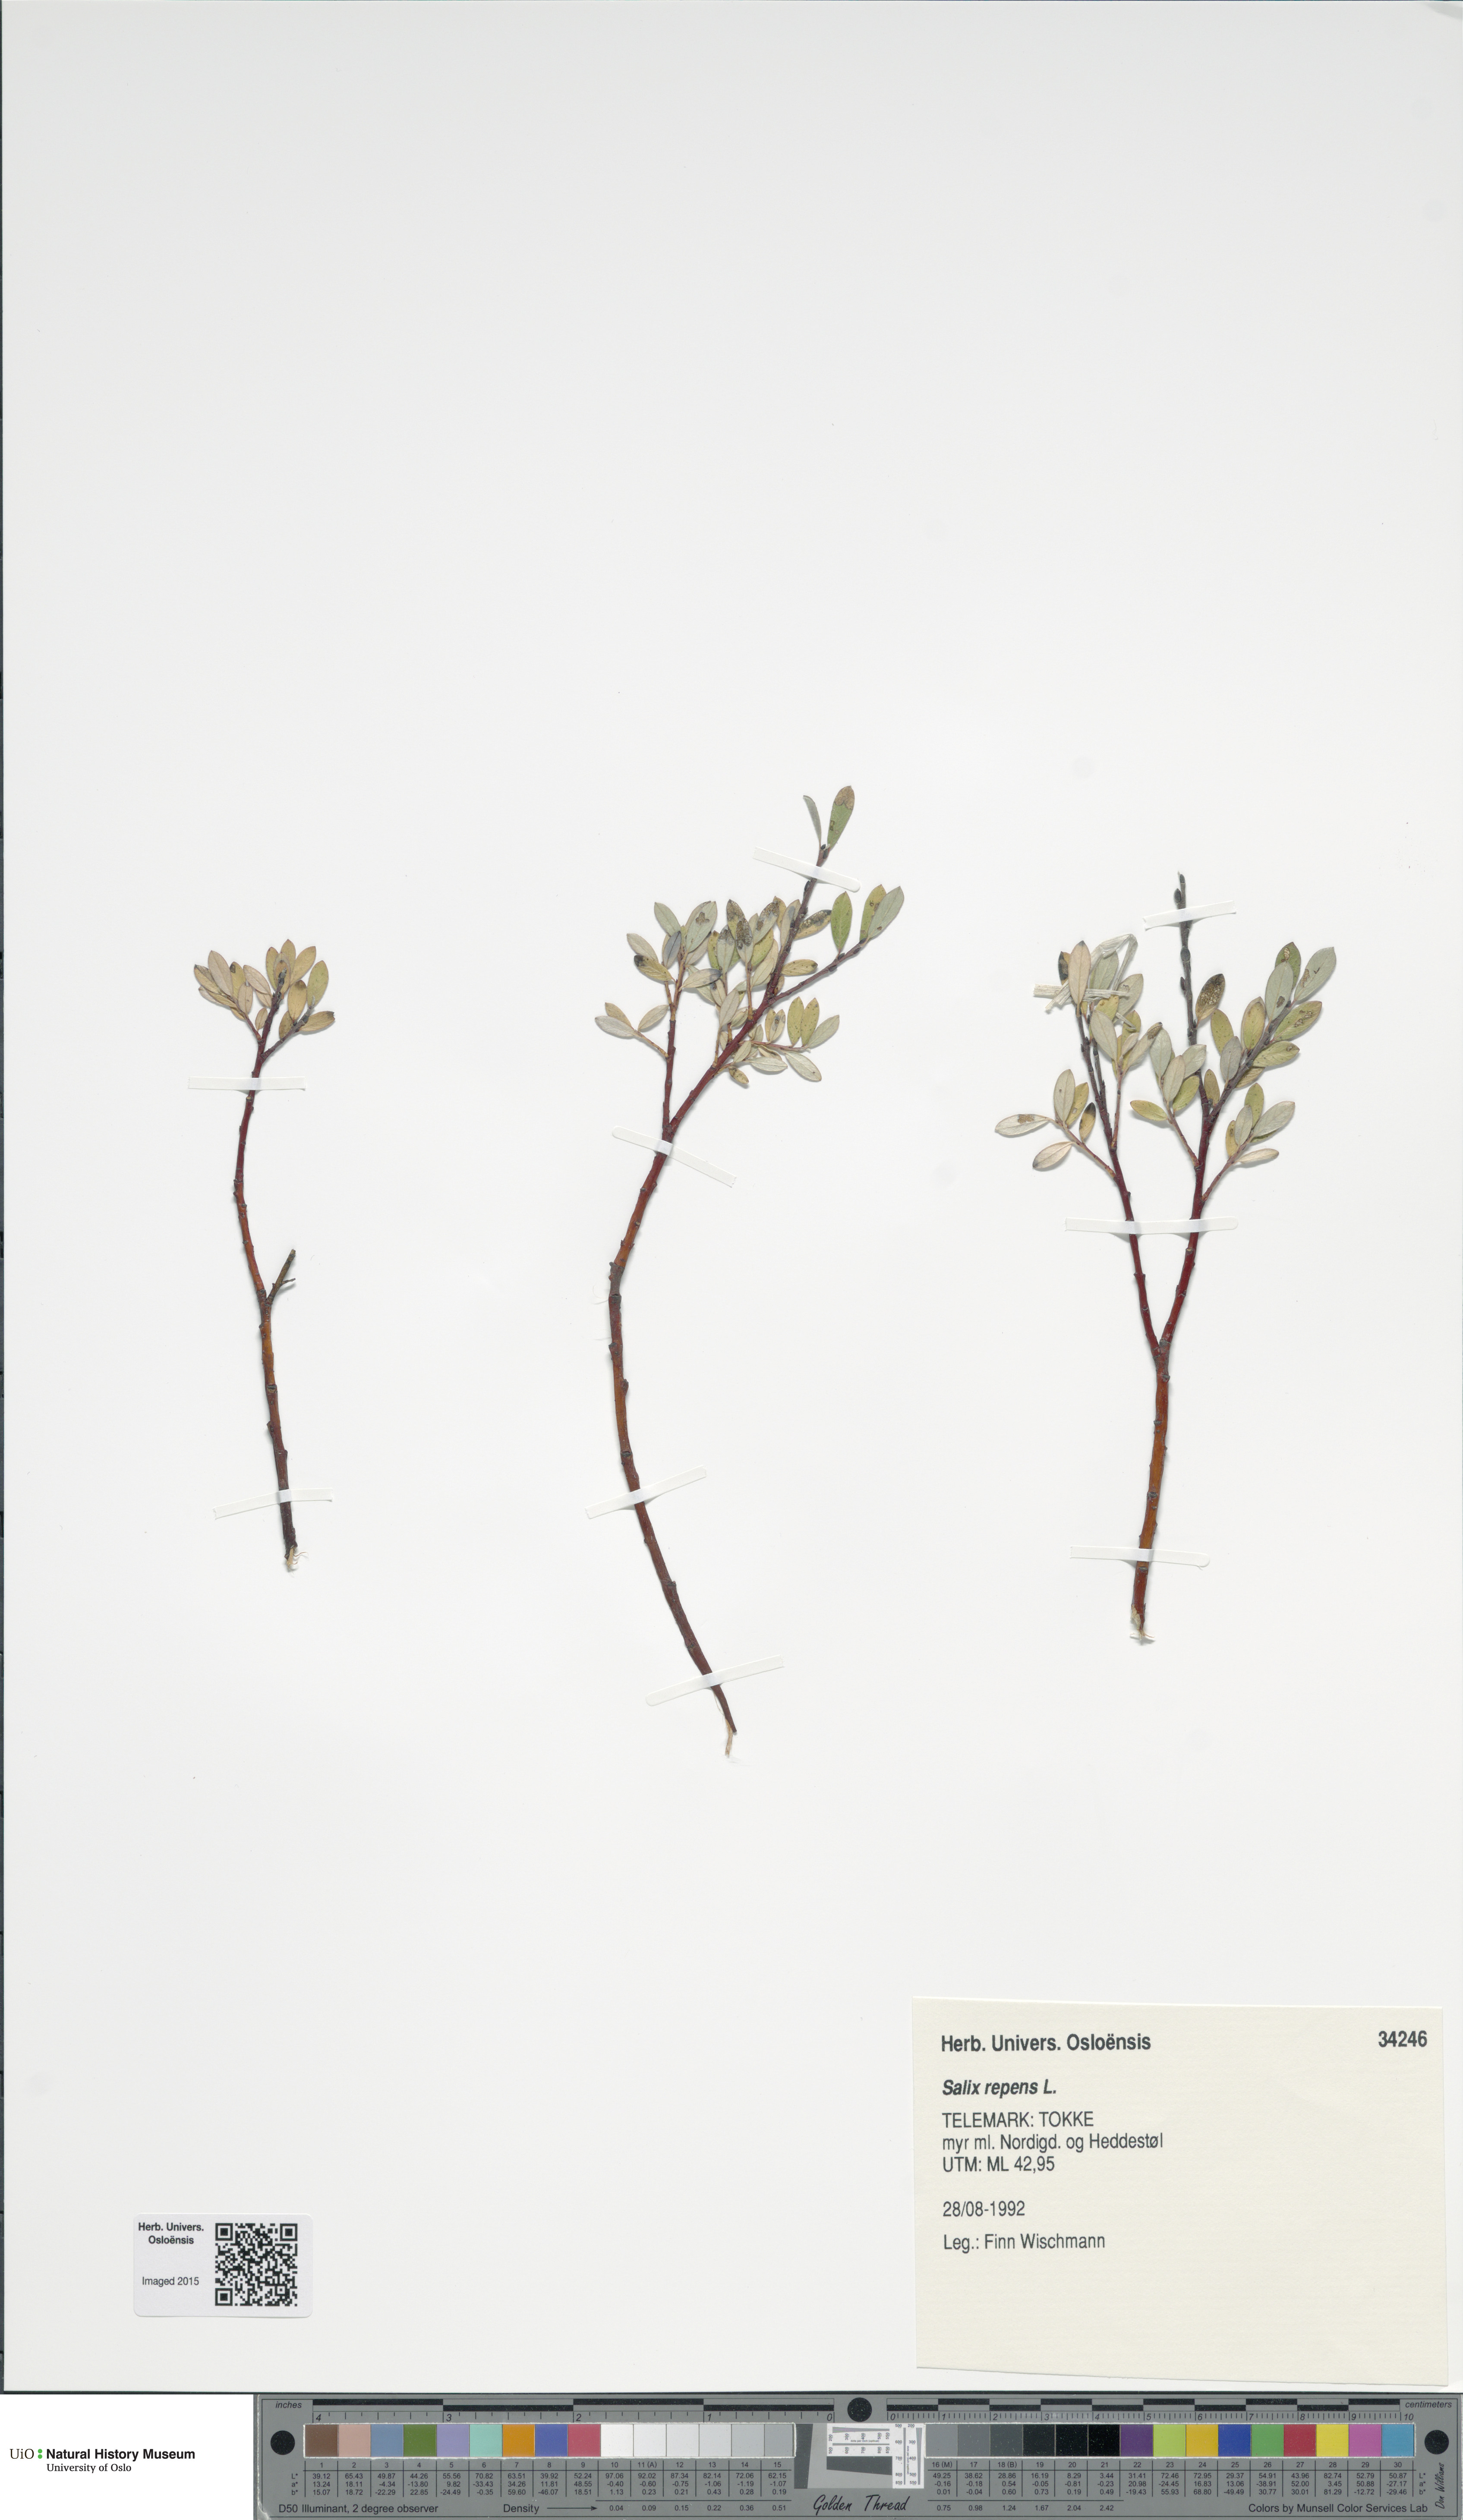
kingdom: Plantae
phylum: Tracheophyta
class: Magnoliopsida
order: Malpighiales
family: Salicaceae
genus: Salix
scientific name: Salix repens
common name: Creeping willow
